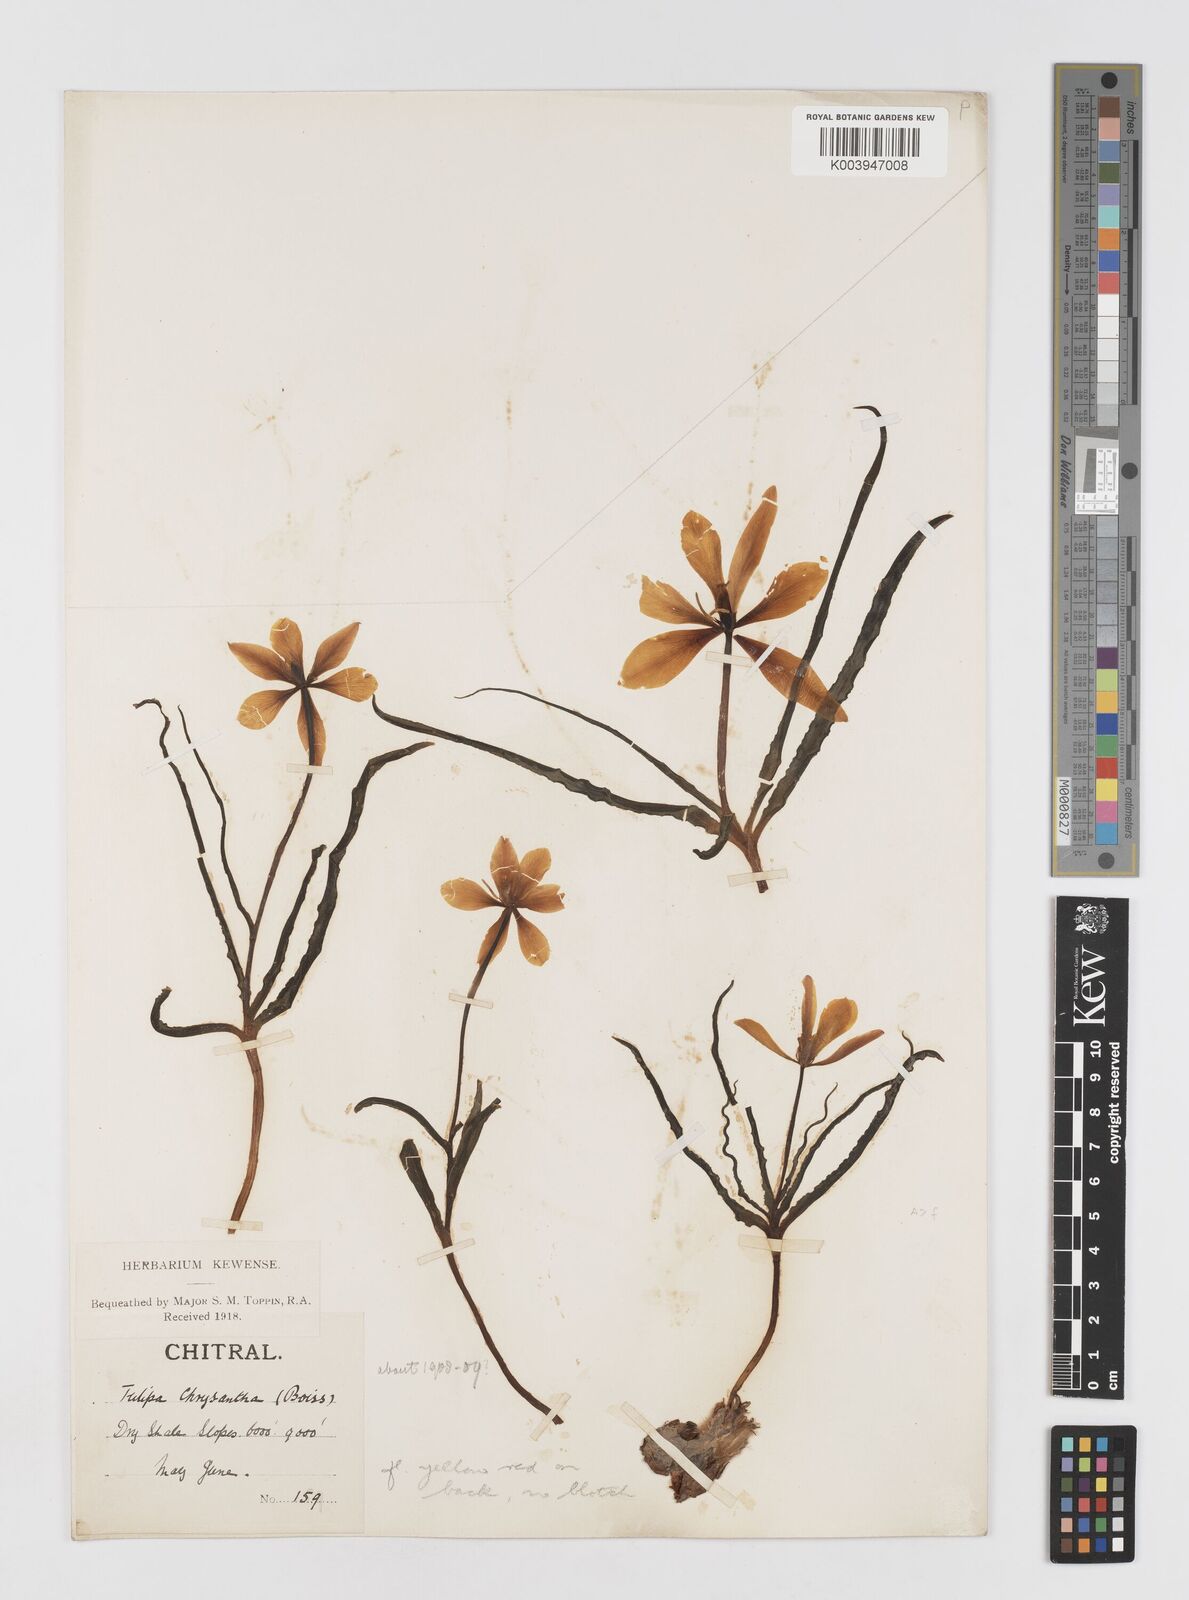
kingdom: Plantae
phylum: Tracheophyta
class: Liliopsida
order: Liliales
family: Liliaceae
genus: Tulipa
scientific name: Tulipa clusiana
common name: Lady tulip
